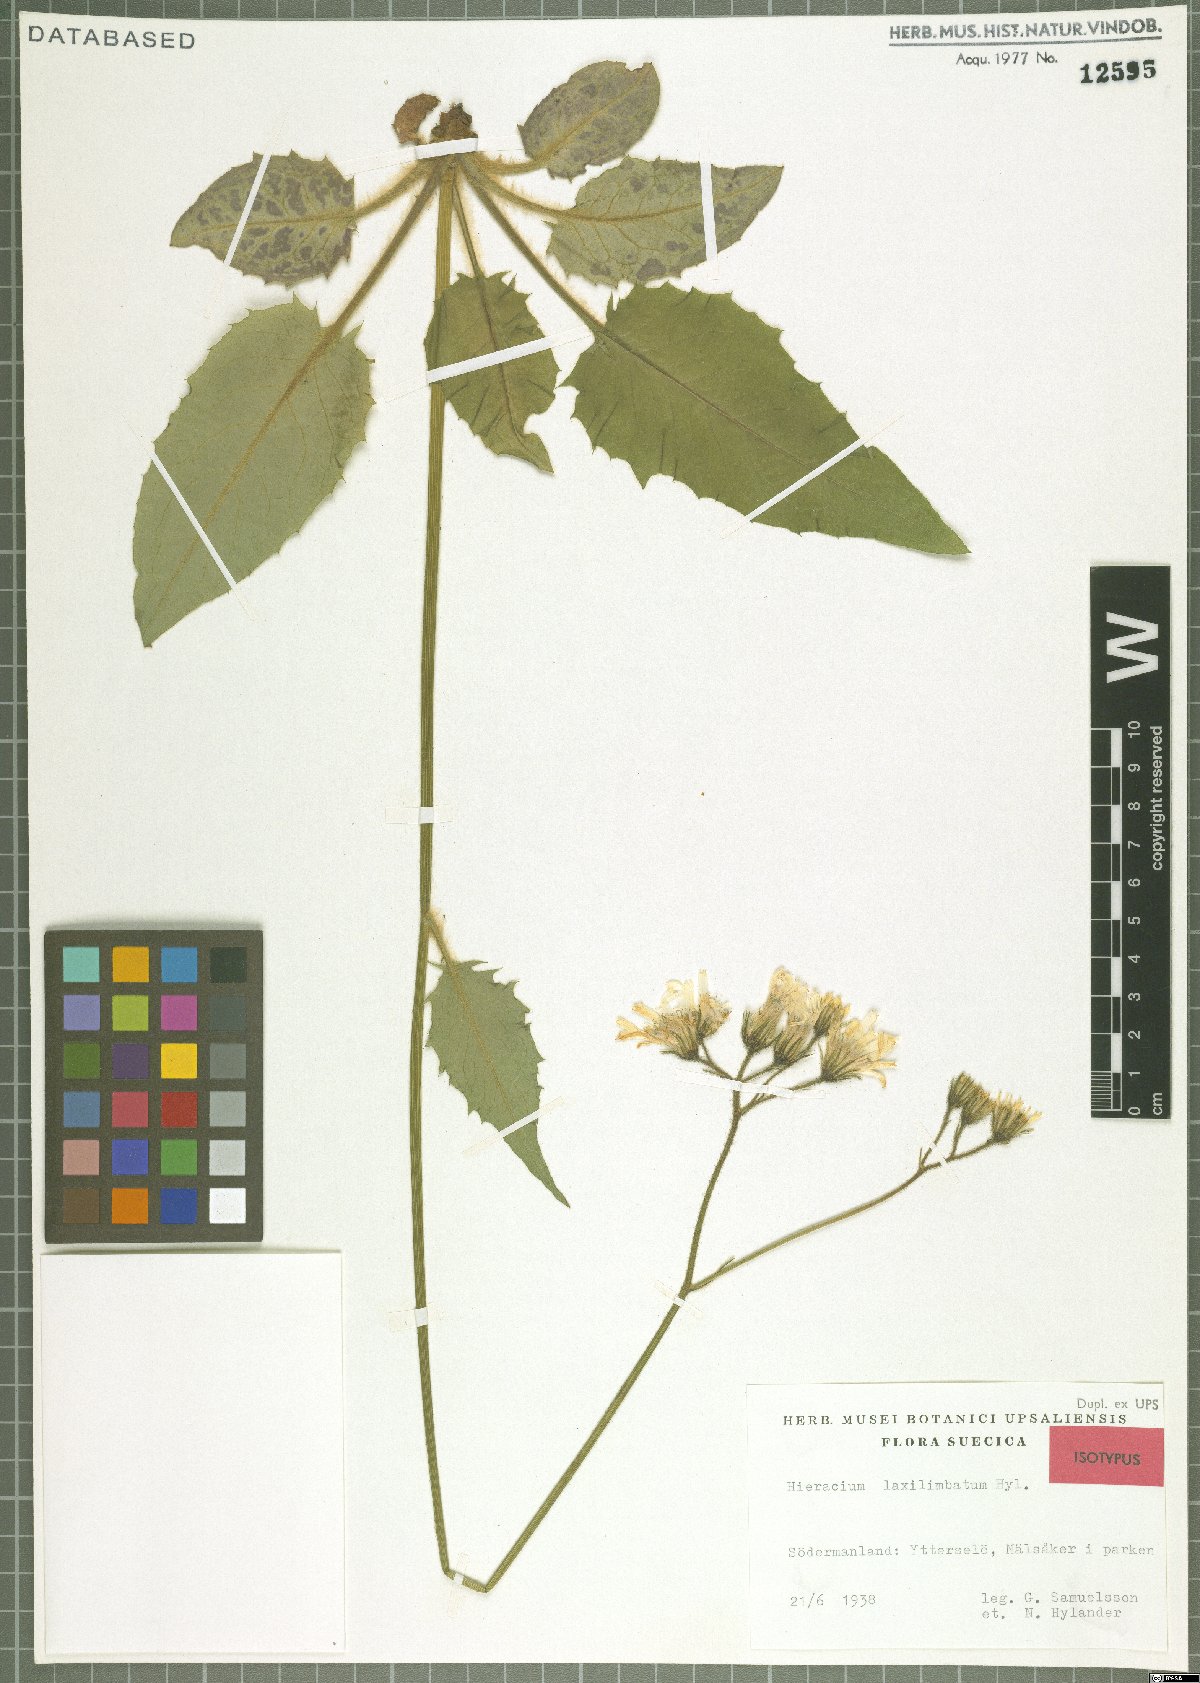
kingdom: Plantae
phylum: Tracheophyta
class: Magnoliopsida
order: Asterales
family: Asteraceae
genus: Hieracium
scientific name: Hieracium laxilimbatum
